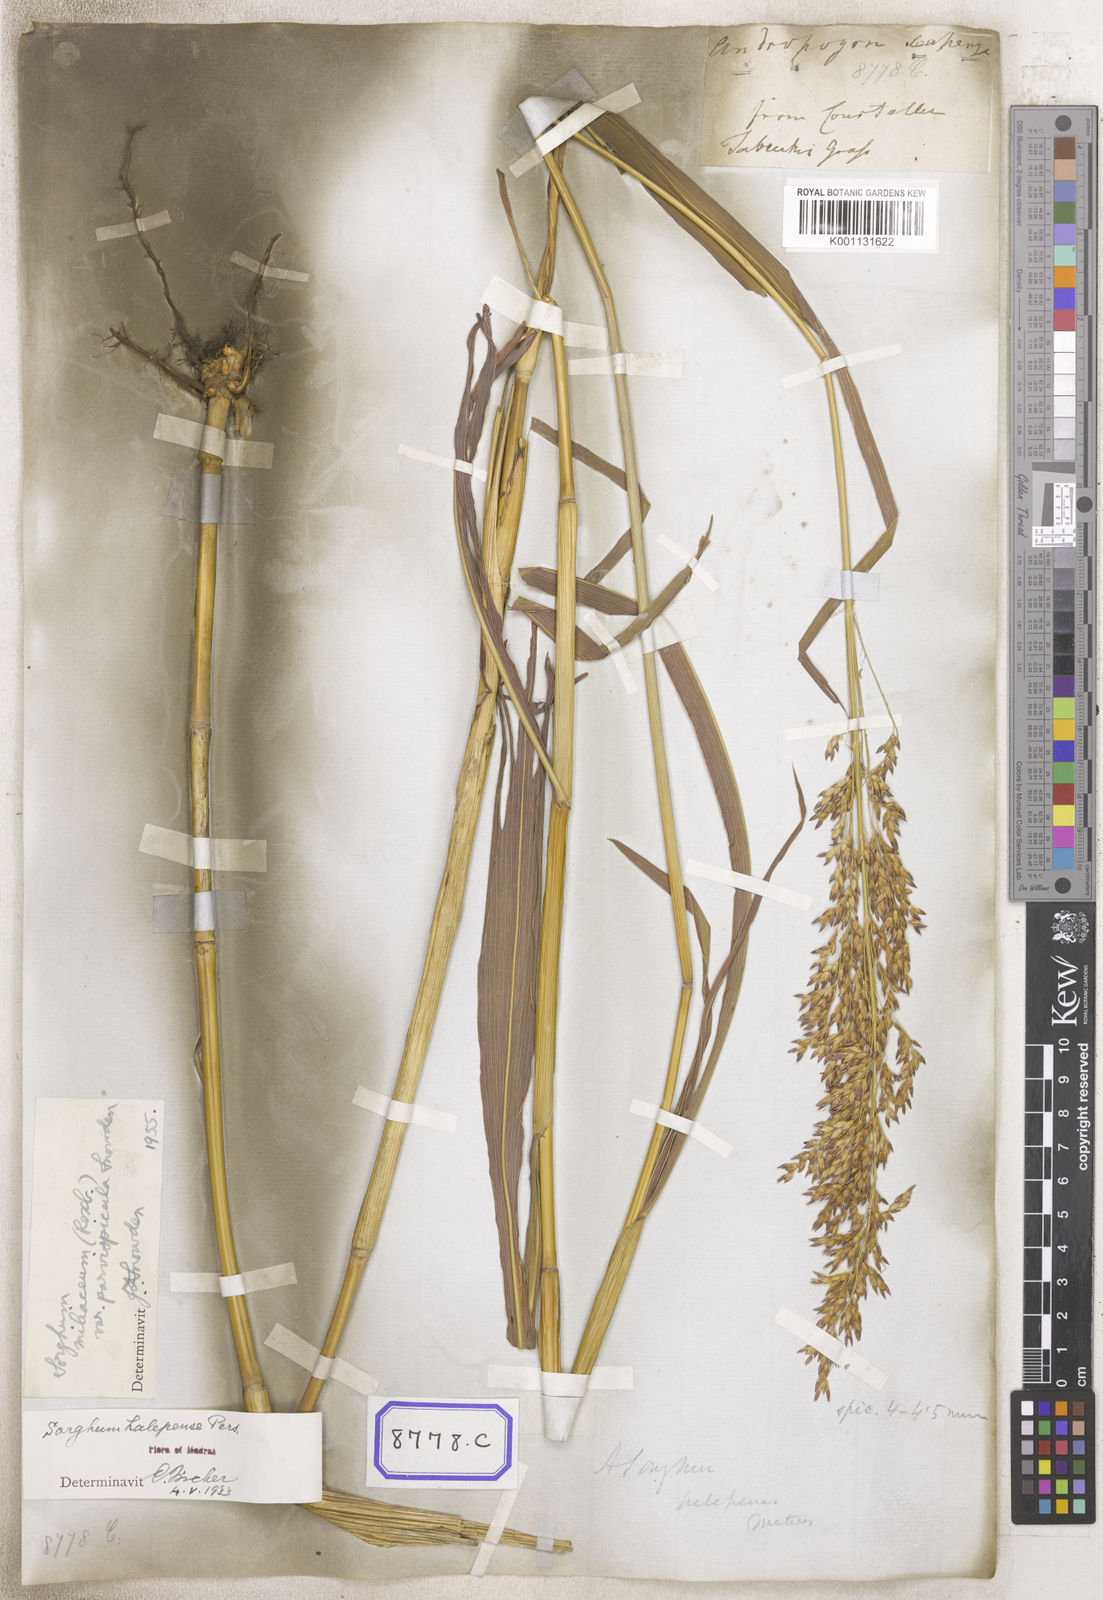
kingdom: Plantae
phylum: Tracheophyta
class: Liliopsida
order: Poales
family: Poaceae
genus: Sorghum
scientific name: Sorghum halepense
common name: Johnson-grass
